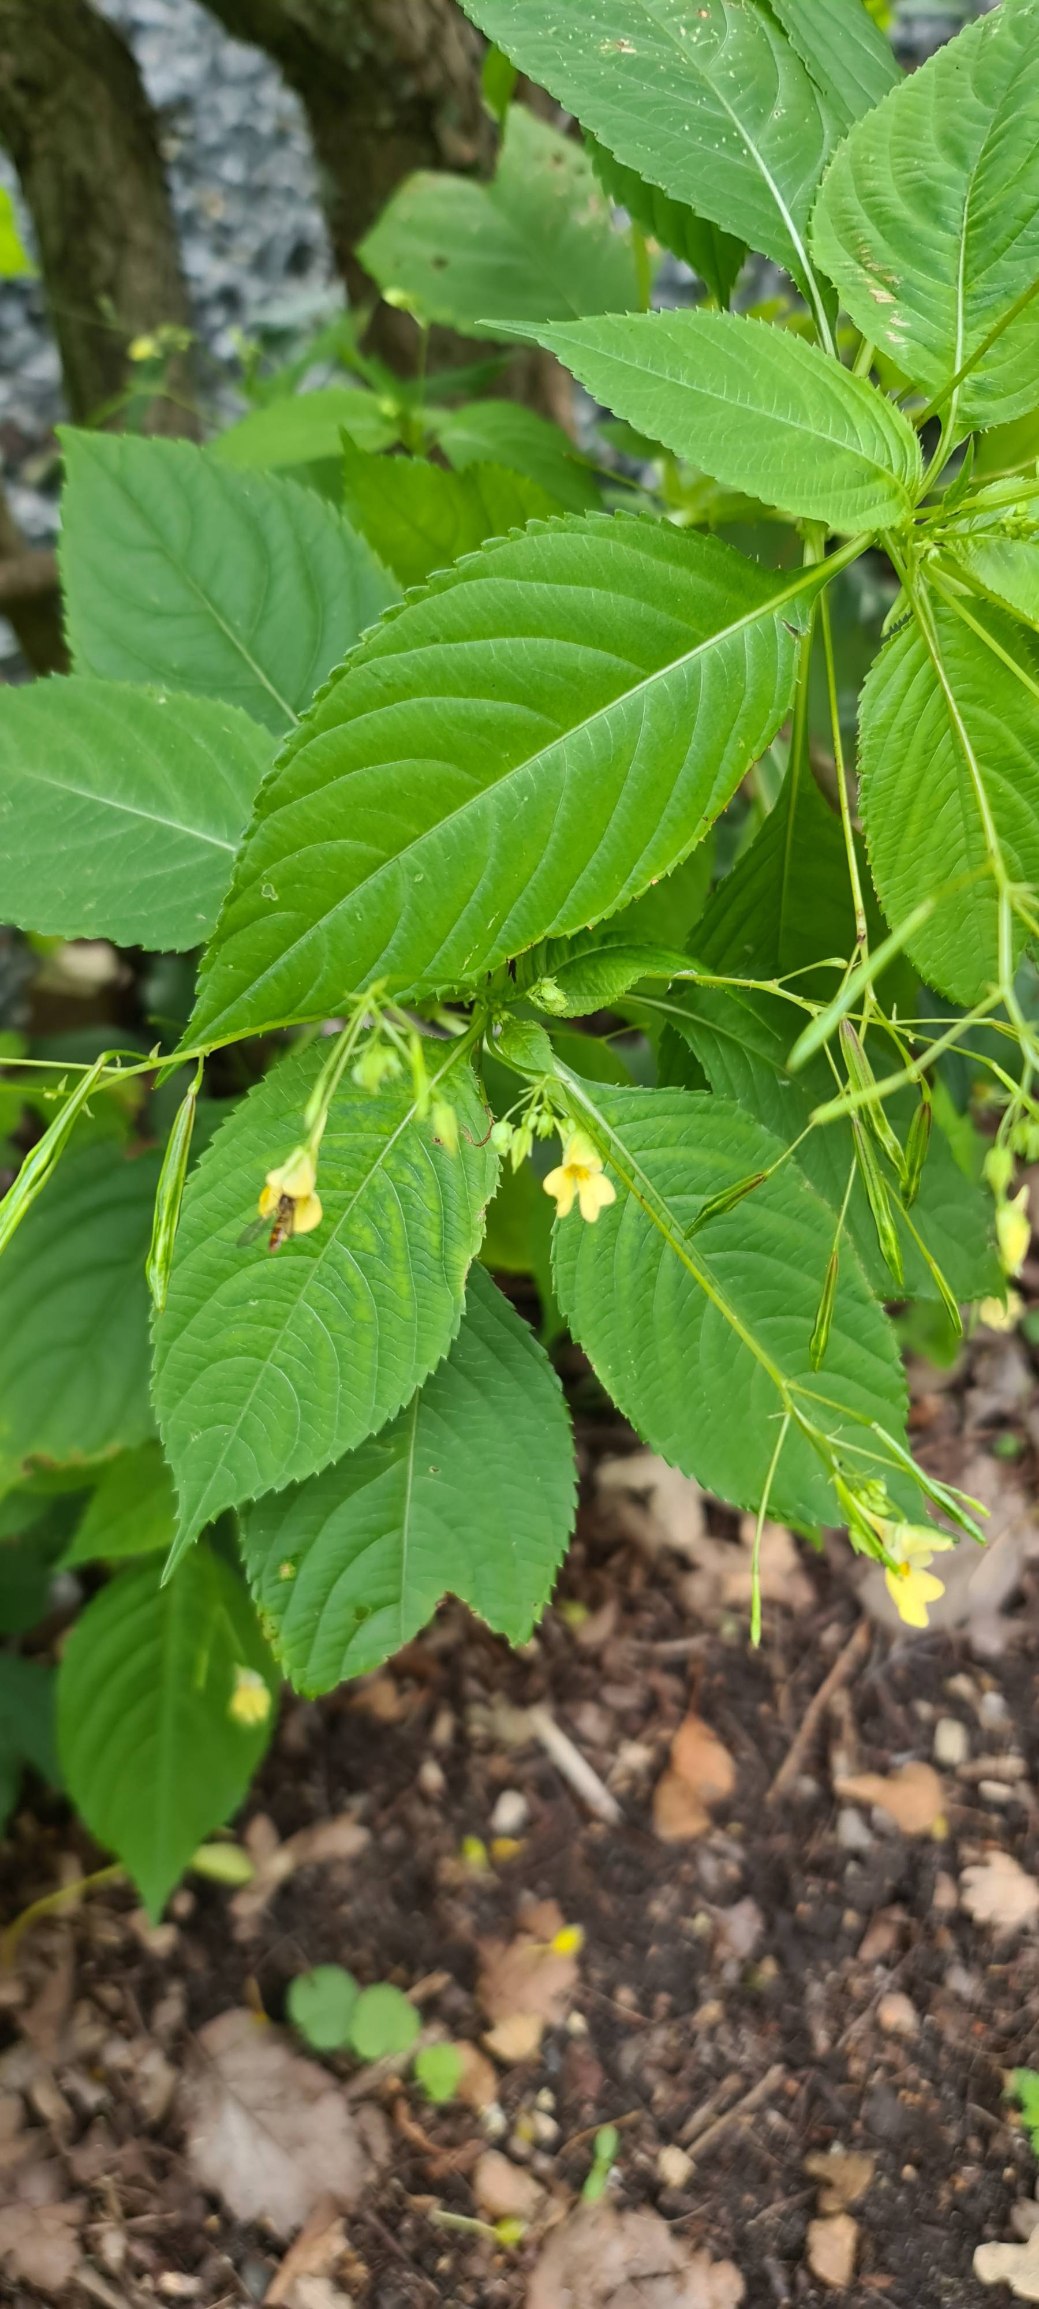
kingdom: Plantae
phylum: Tracheophyta
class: Magnoliopsida
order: Ericales
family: Balsaminaceae
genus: Impatiens
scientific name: Impatiens parviflora
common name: Småblomstret balsamin
